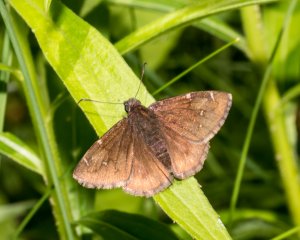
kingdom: Animalia
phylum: Arthropoda
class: Insecta
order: Lepidoptera
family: Hesperiidae
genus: Autochton
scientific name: Autochton
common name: Northern Cloudywing
